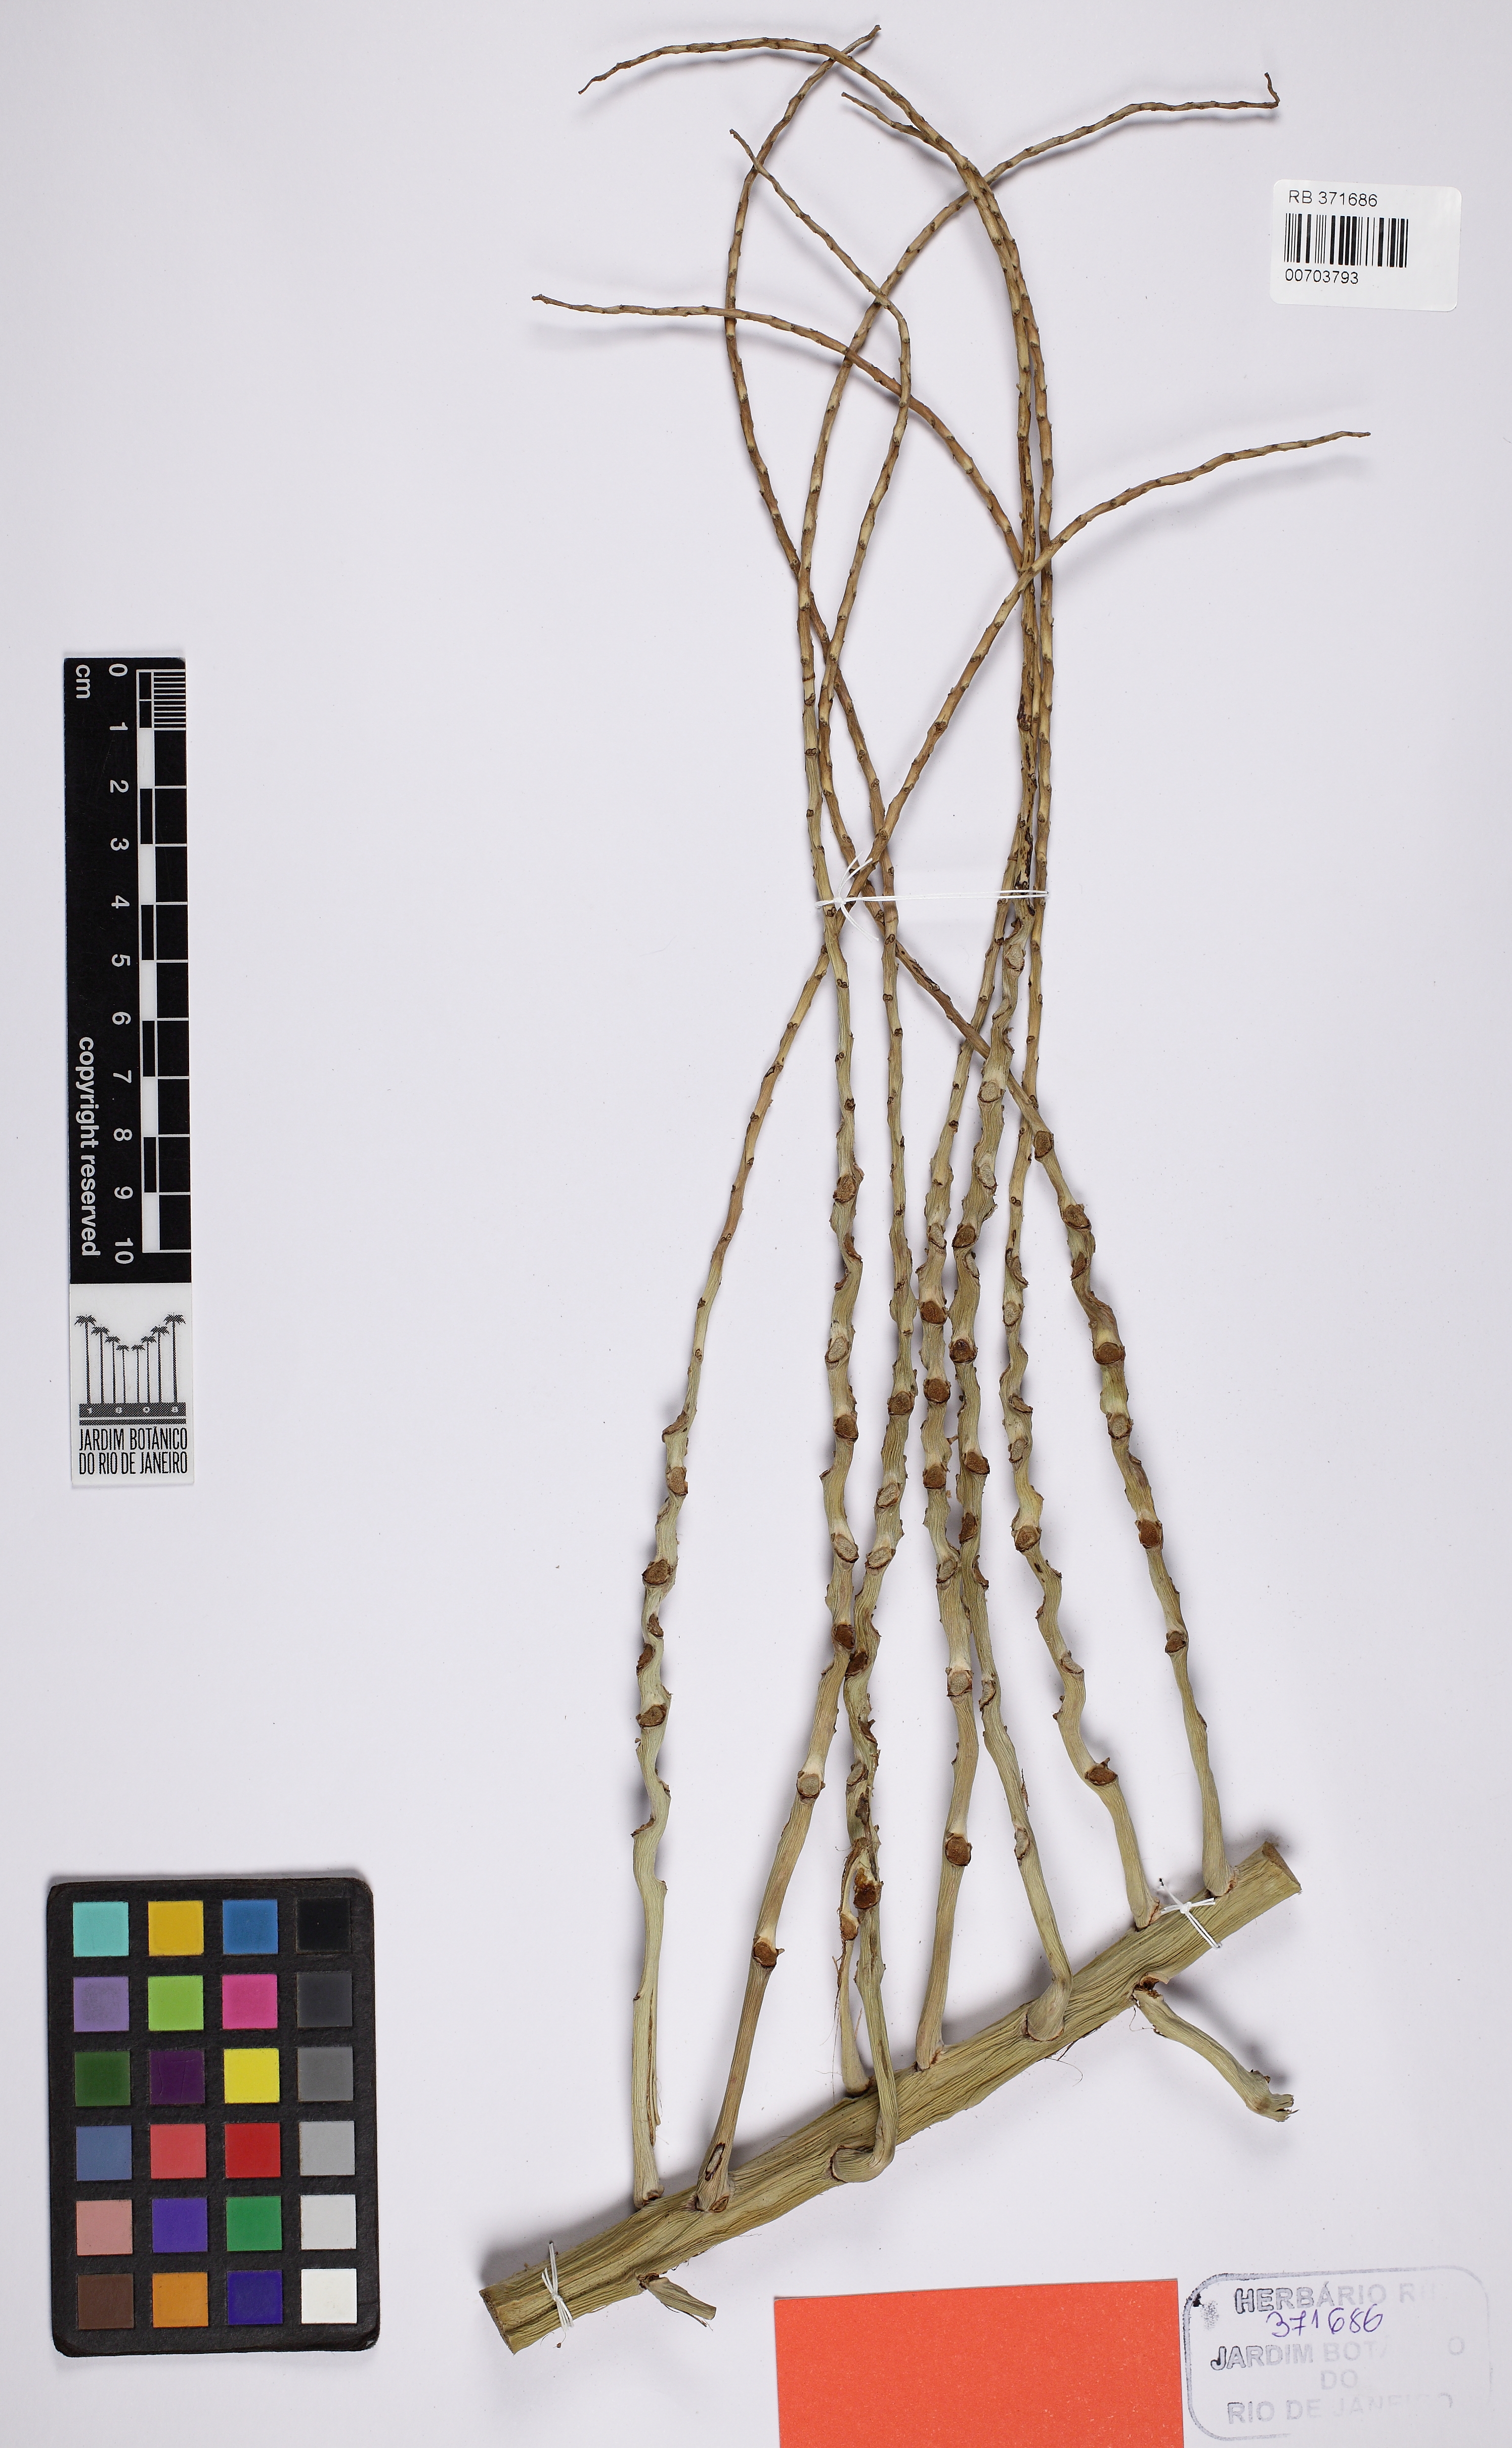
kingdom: Plantae
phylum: Tracheophyta
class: Liliopsida
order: Arecales
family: Arecaceae
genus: Syagrus
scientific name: Syagrus teixeiriana
